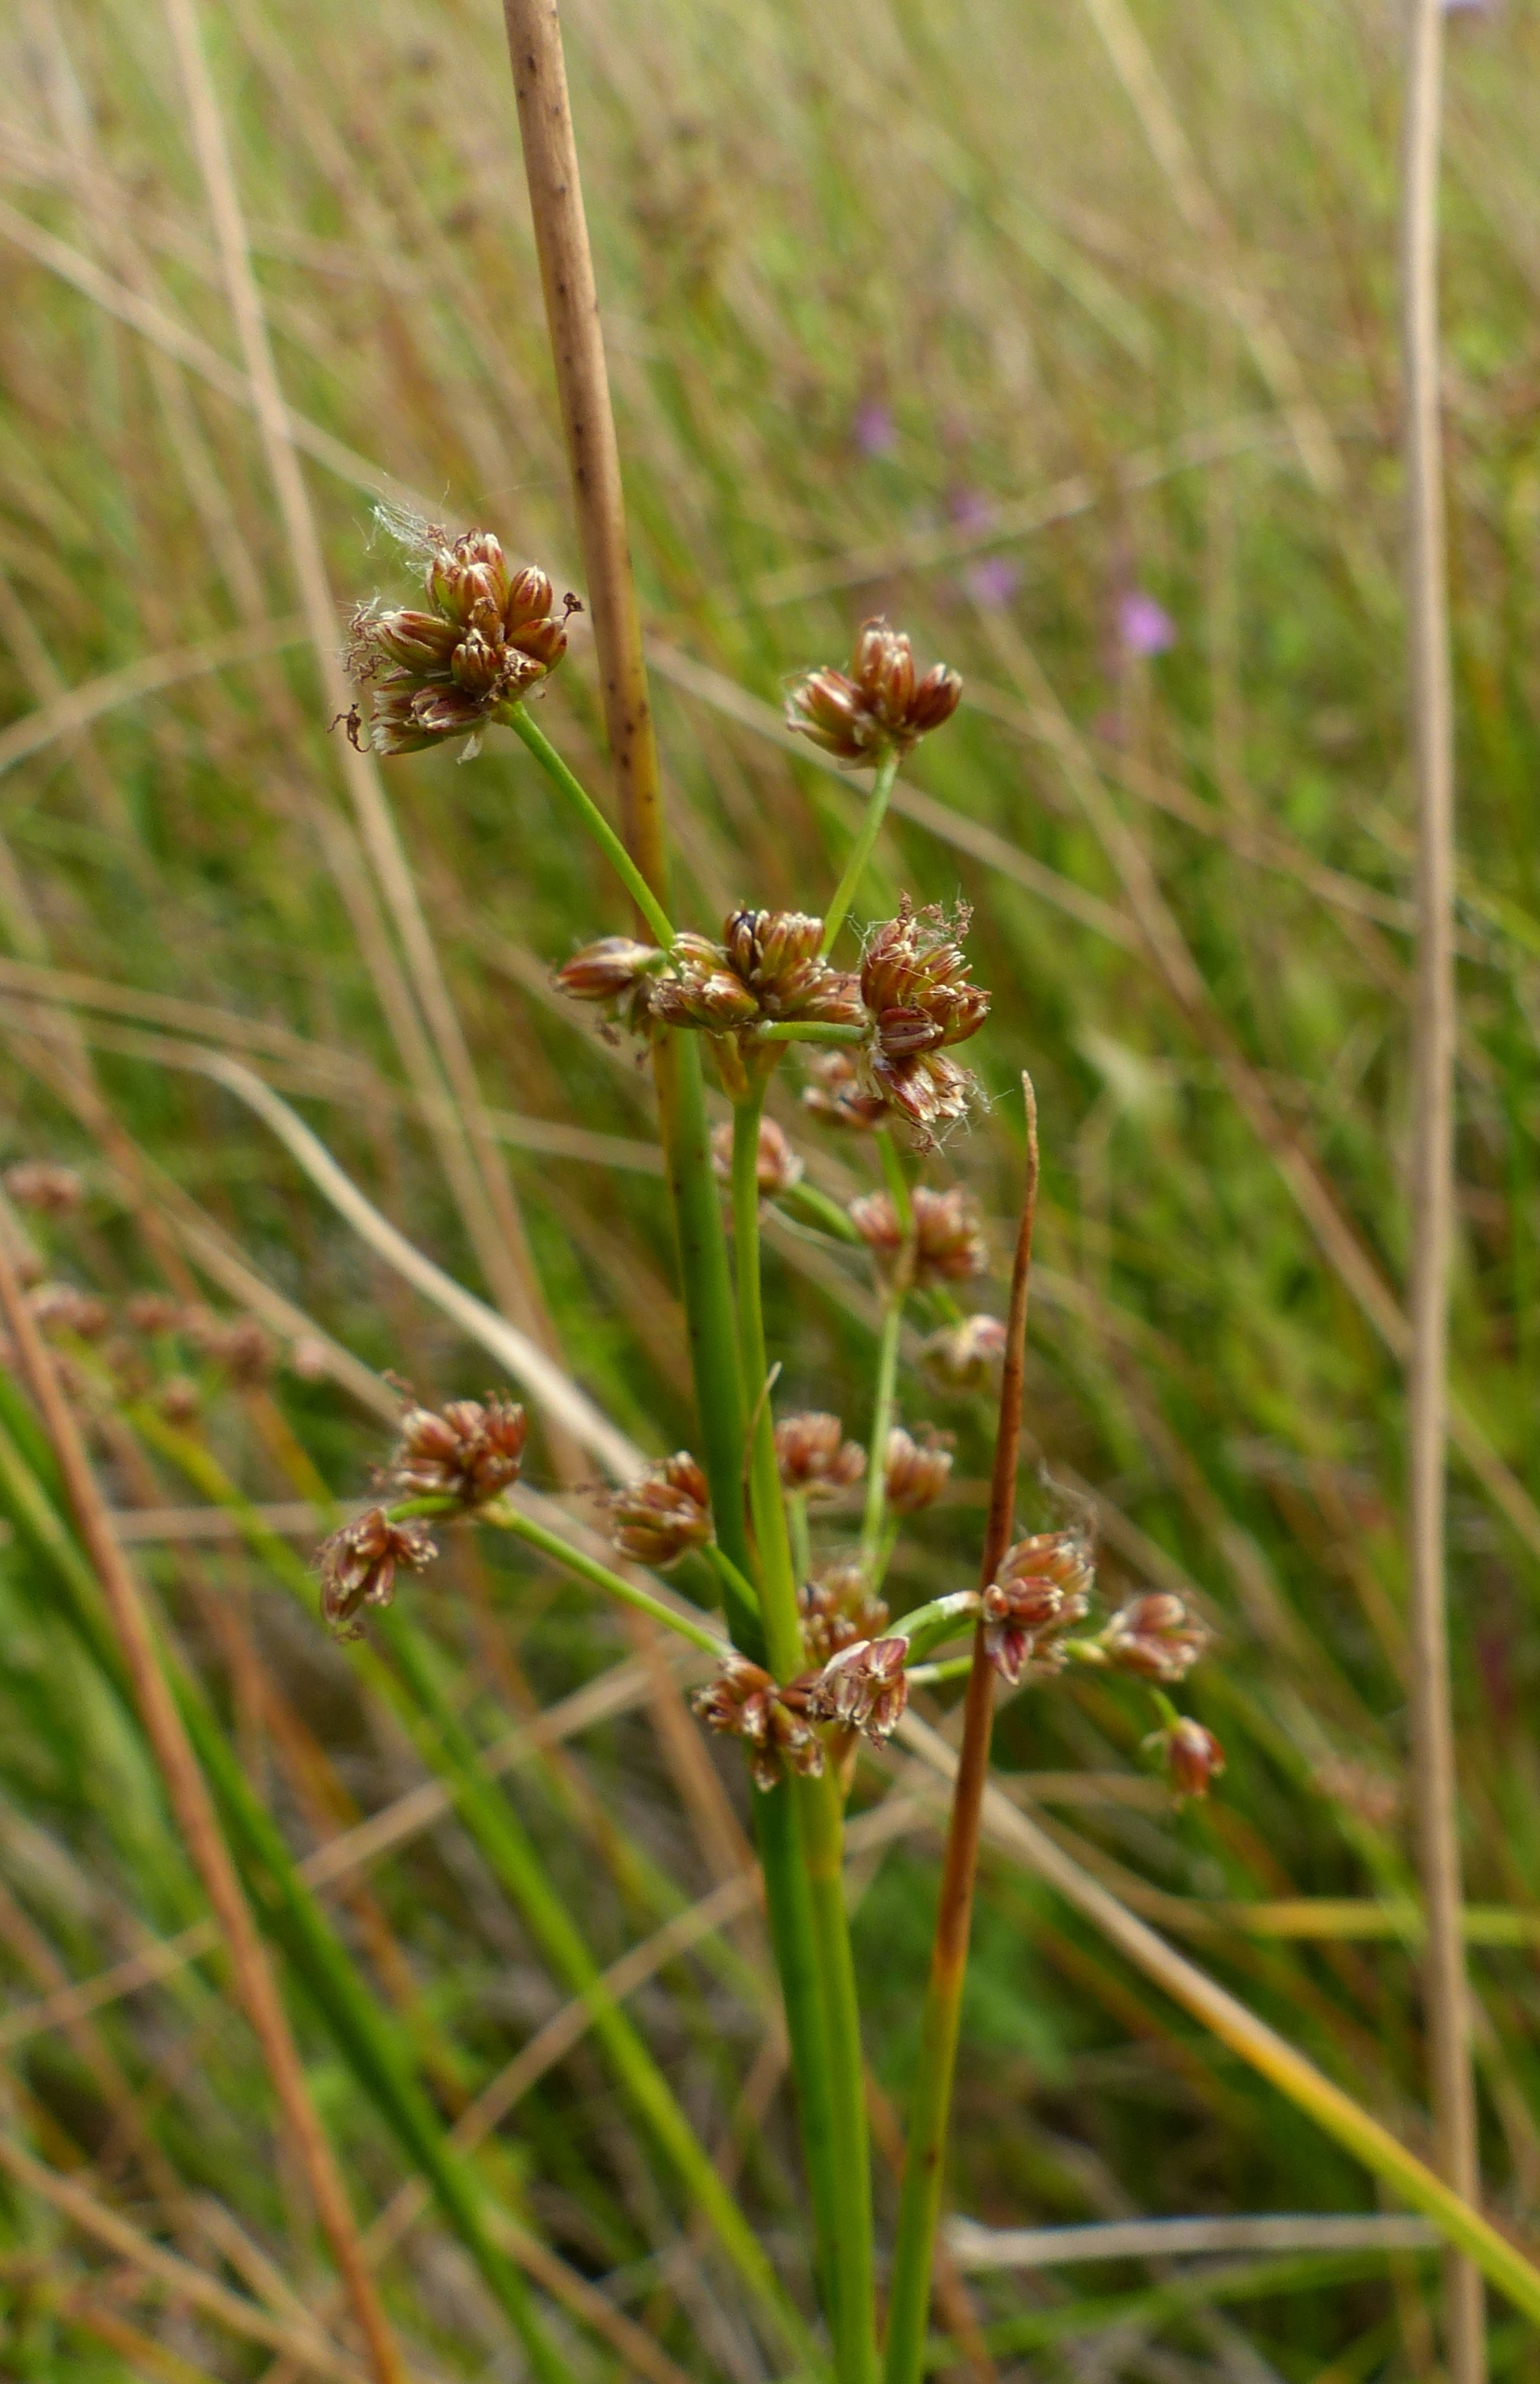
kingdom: Plantae
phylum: Tracheophyta
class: Liliopsida
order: Poales
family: Juncaceae
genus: Juncus
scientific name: Juncus subnodulosus
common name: Butblomstret siv
